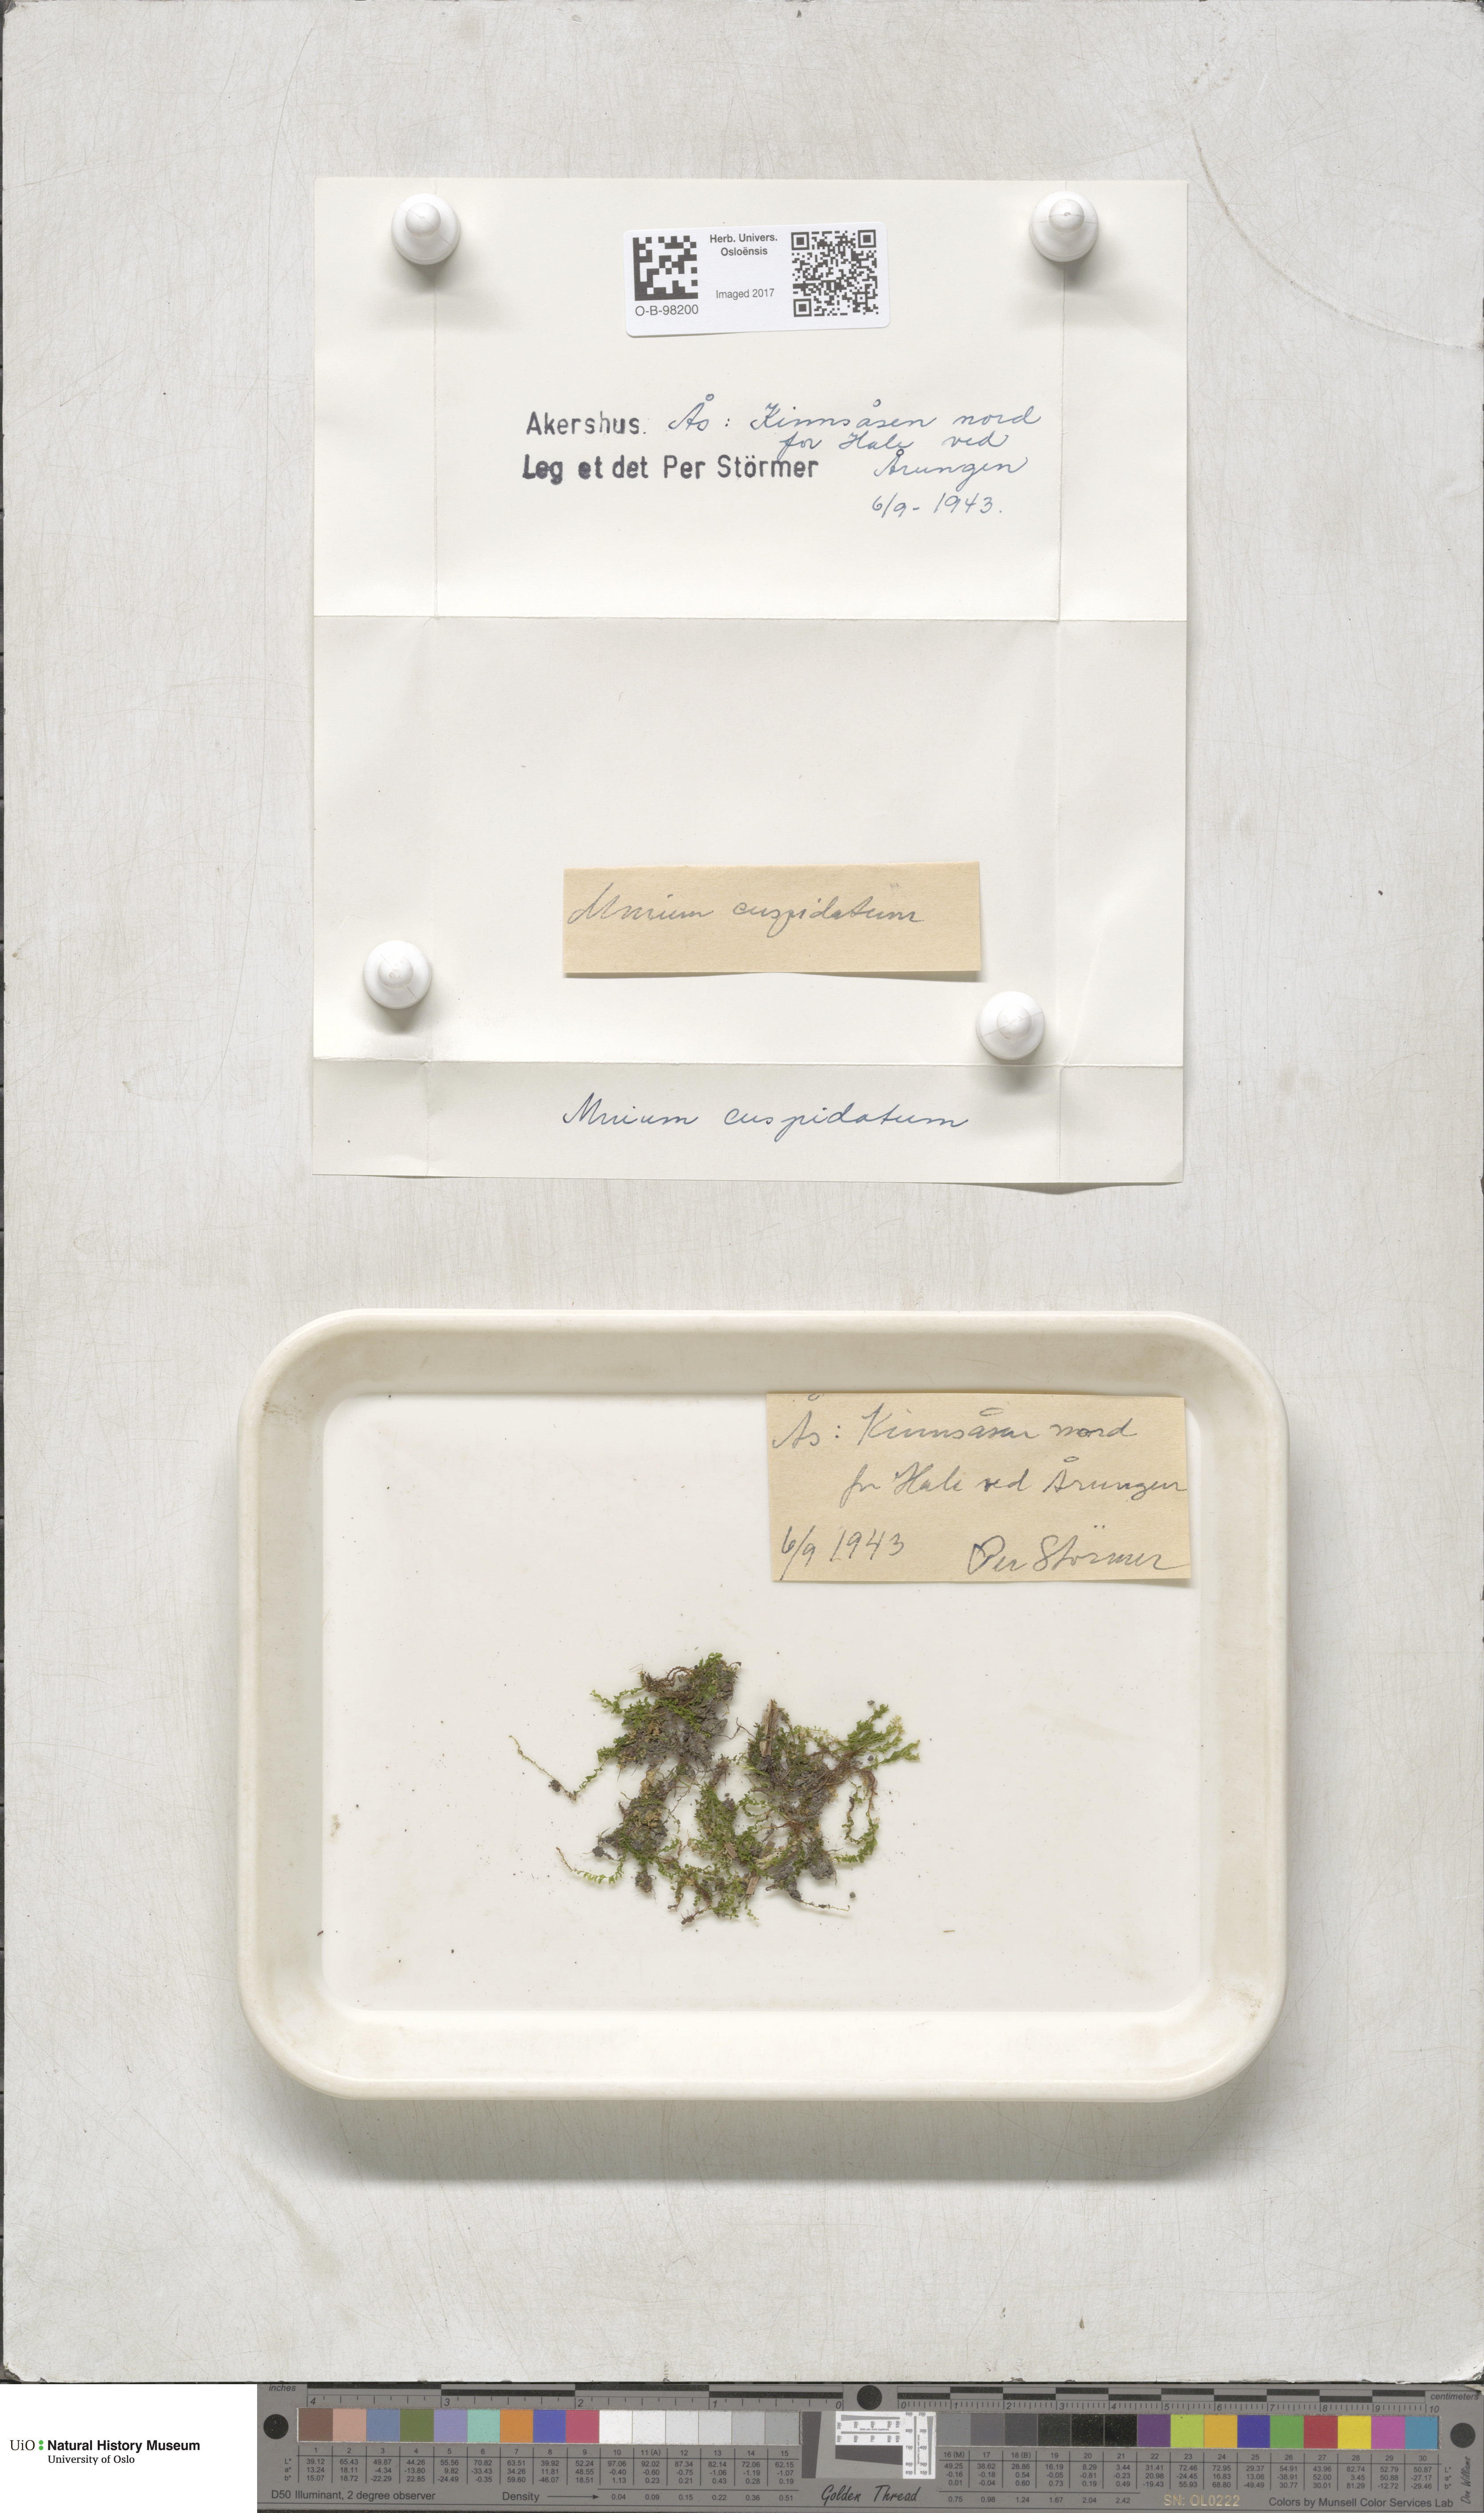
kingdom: Plantae
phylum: Bryophyta
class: Bryopsida
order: Bryales
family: Mniaceae
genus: Plagiomnium
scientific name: Plagiomnium affine
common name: Many-fruited thyme-moss
